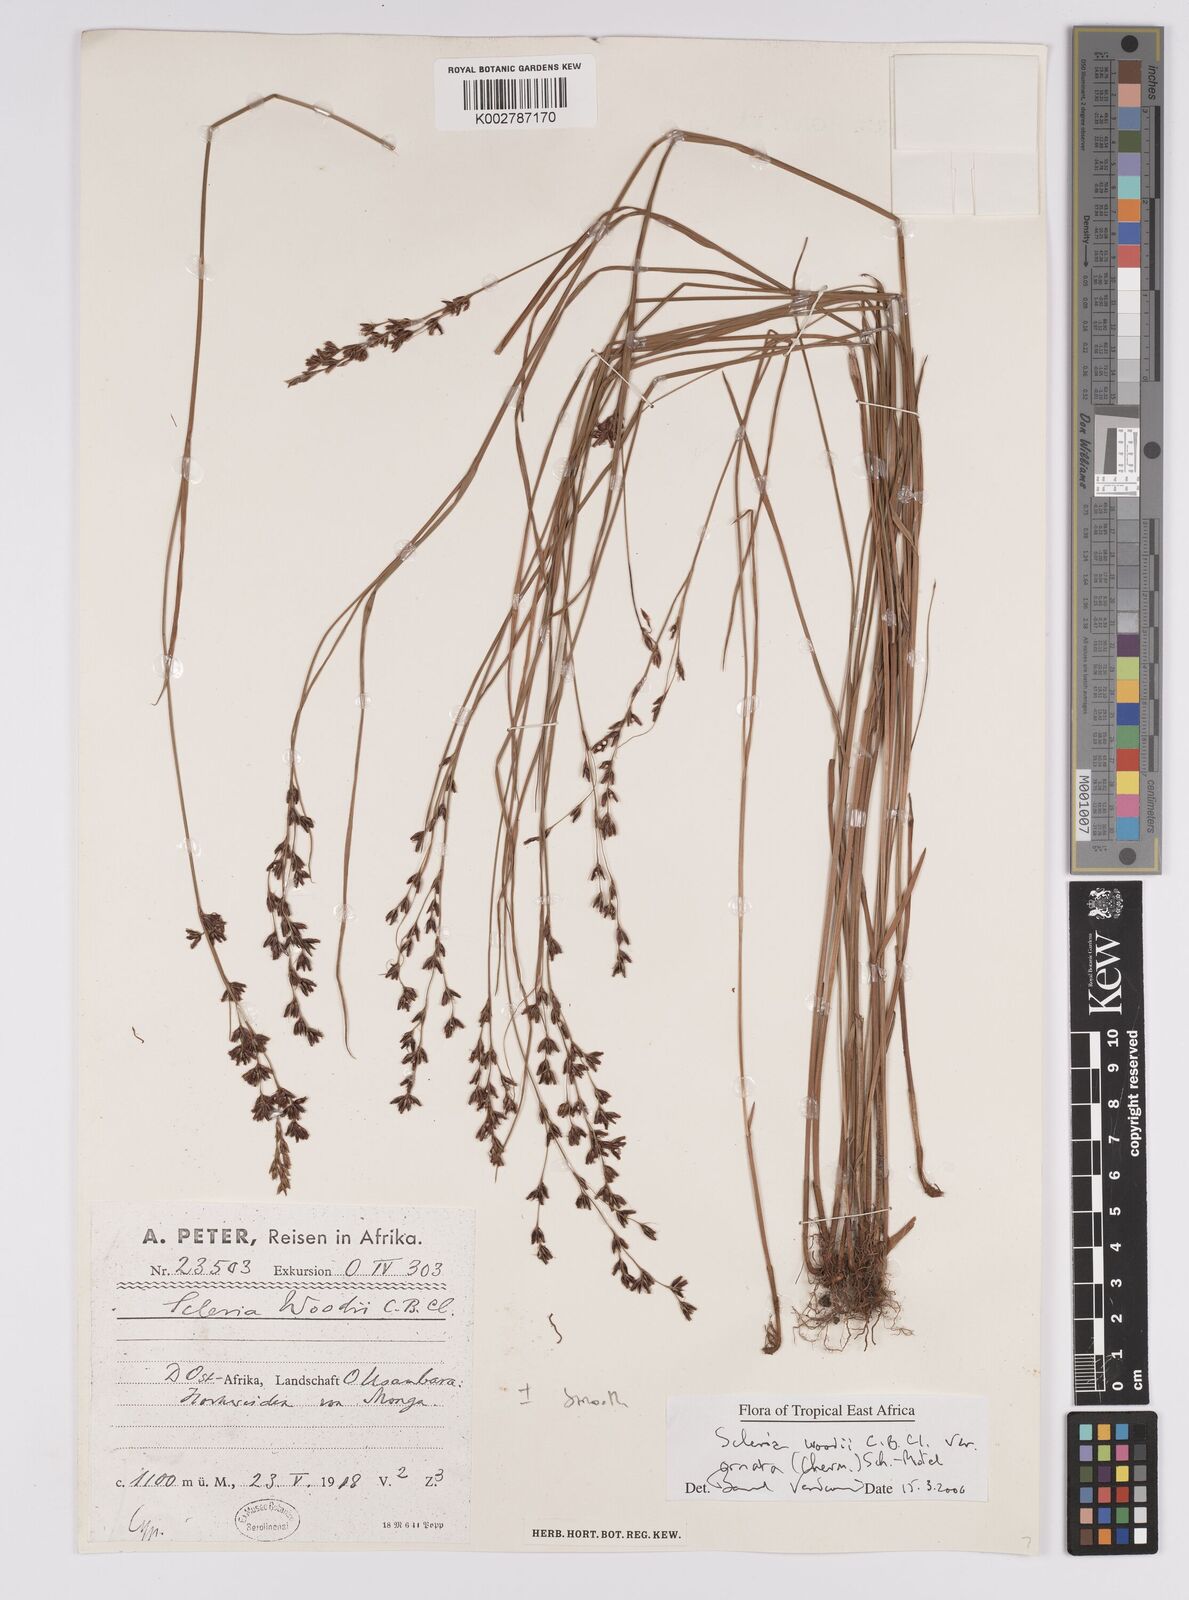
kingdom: Plantae
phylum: Tracheophyta
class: Liliopsida
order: Poales
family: Cyperaceae
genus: Scleria
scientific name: Scleria woodii
